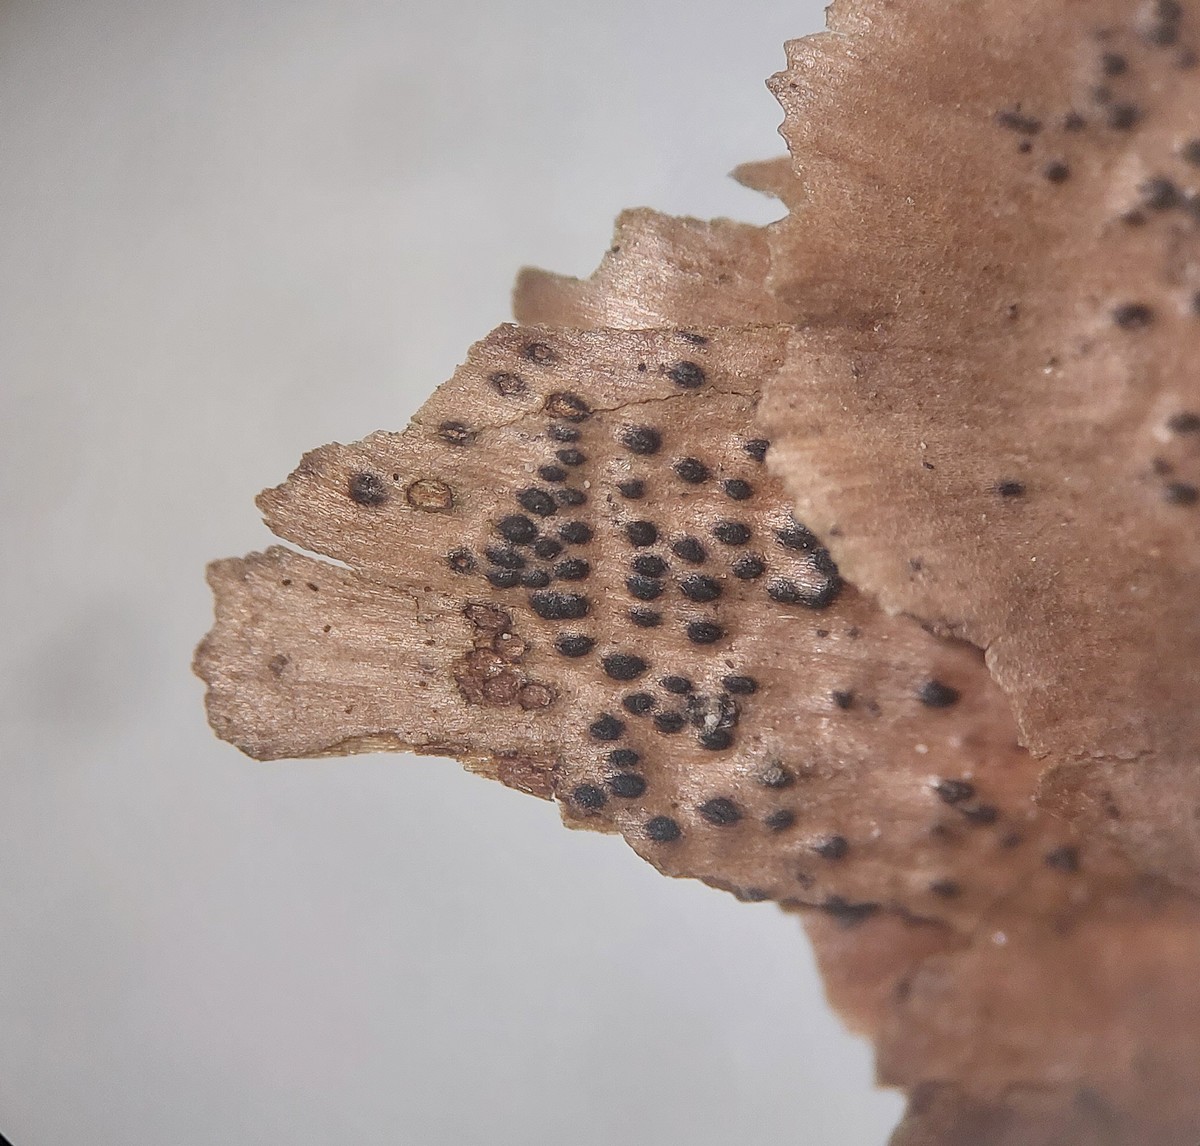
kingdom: Fungi
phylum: Ascomycota
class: Dothideomycetes
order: Pleosporales
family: Lophiostomataceae
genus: Lophiostoma
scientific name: Lophiostoma
